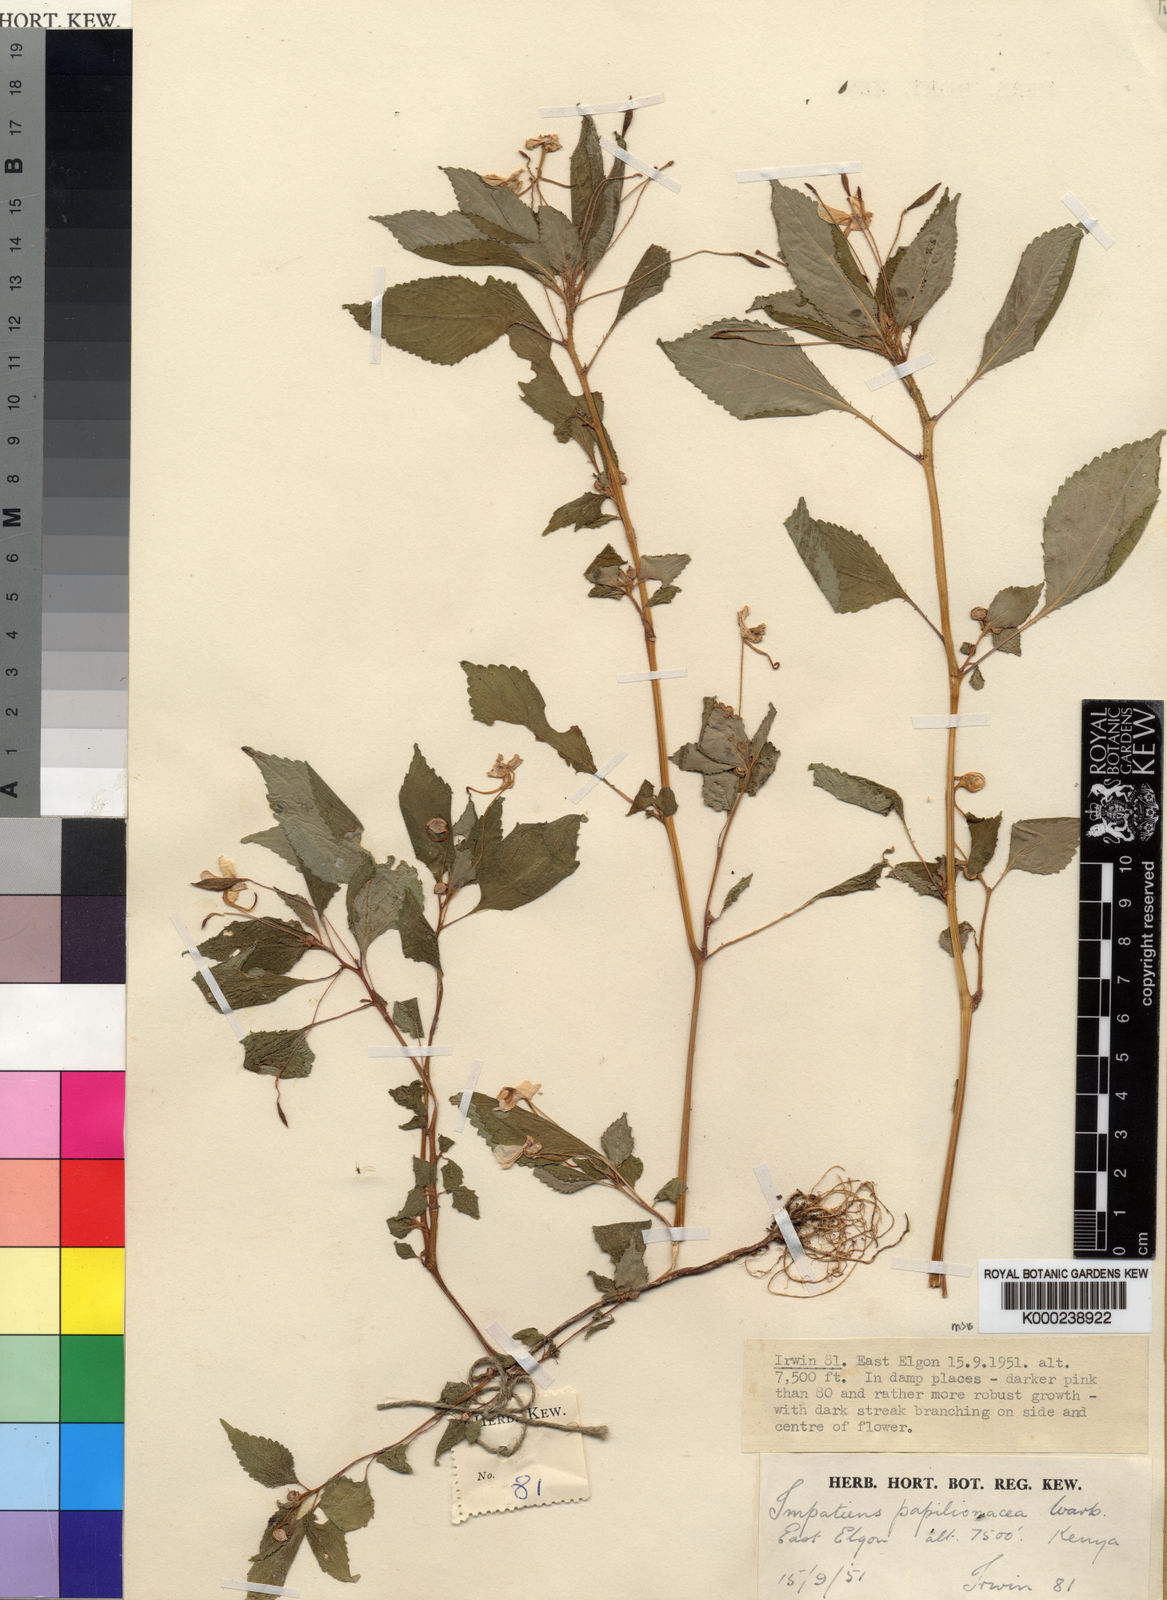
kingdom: Plantae
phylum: Tracheophyta
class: Magnoliopsida
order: Ericales
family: Balsaminaceae
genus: Impatiens
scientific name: Impatiens nana
